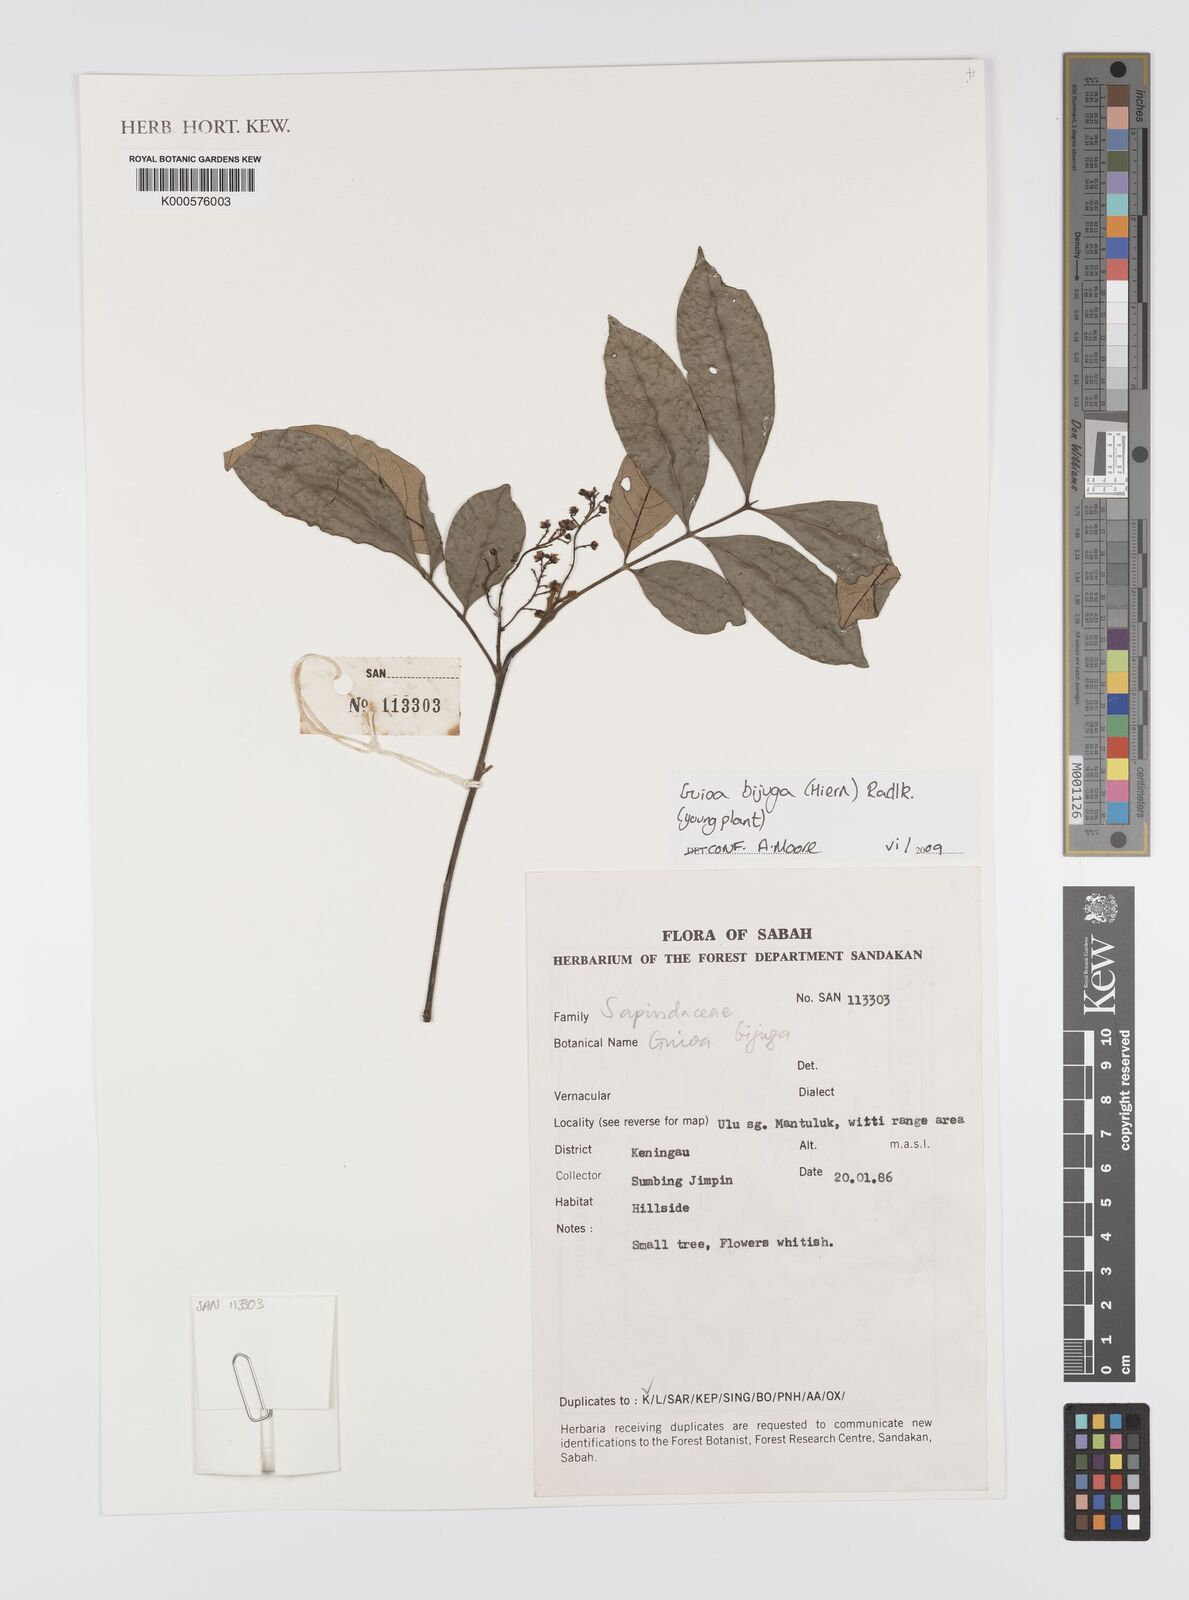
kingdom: Plantae
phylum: Tracheophyta
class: Magnoliopsida
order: Sapindales
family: Sapindaceae
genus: Guioa
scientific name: Guioa bijuga
